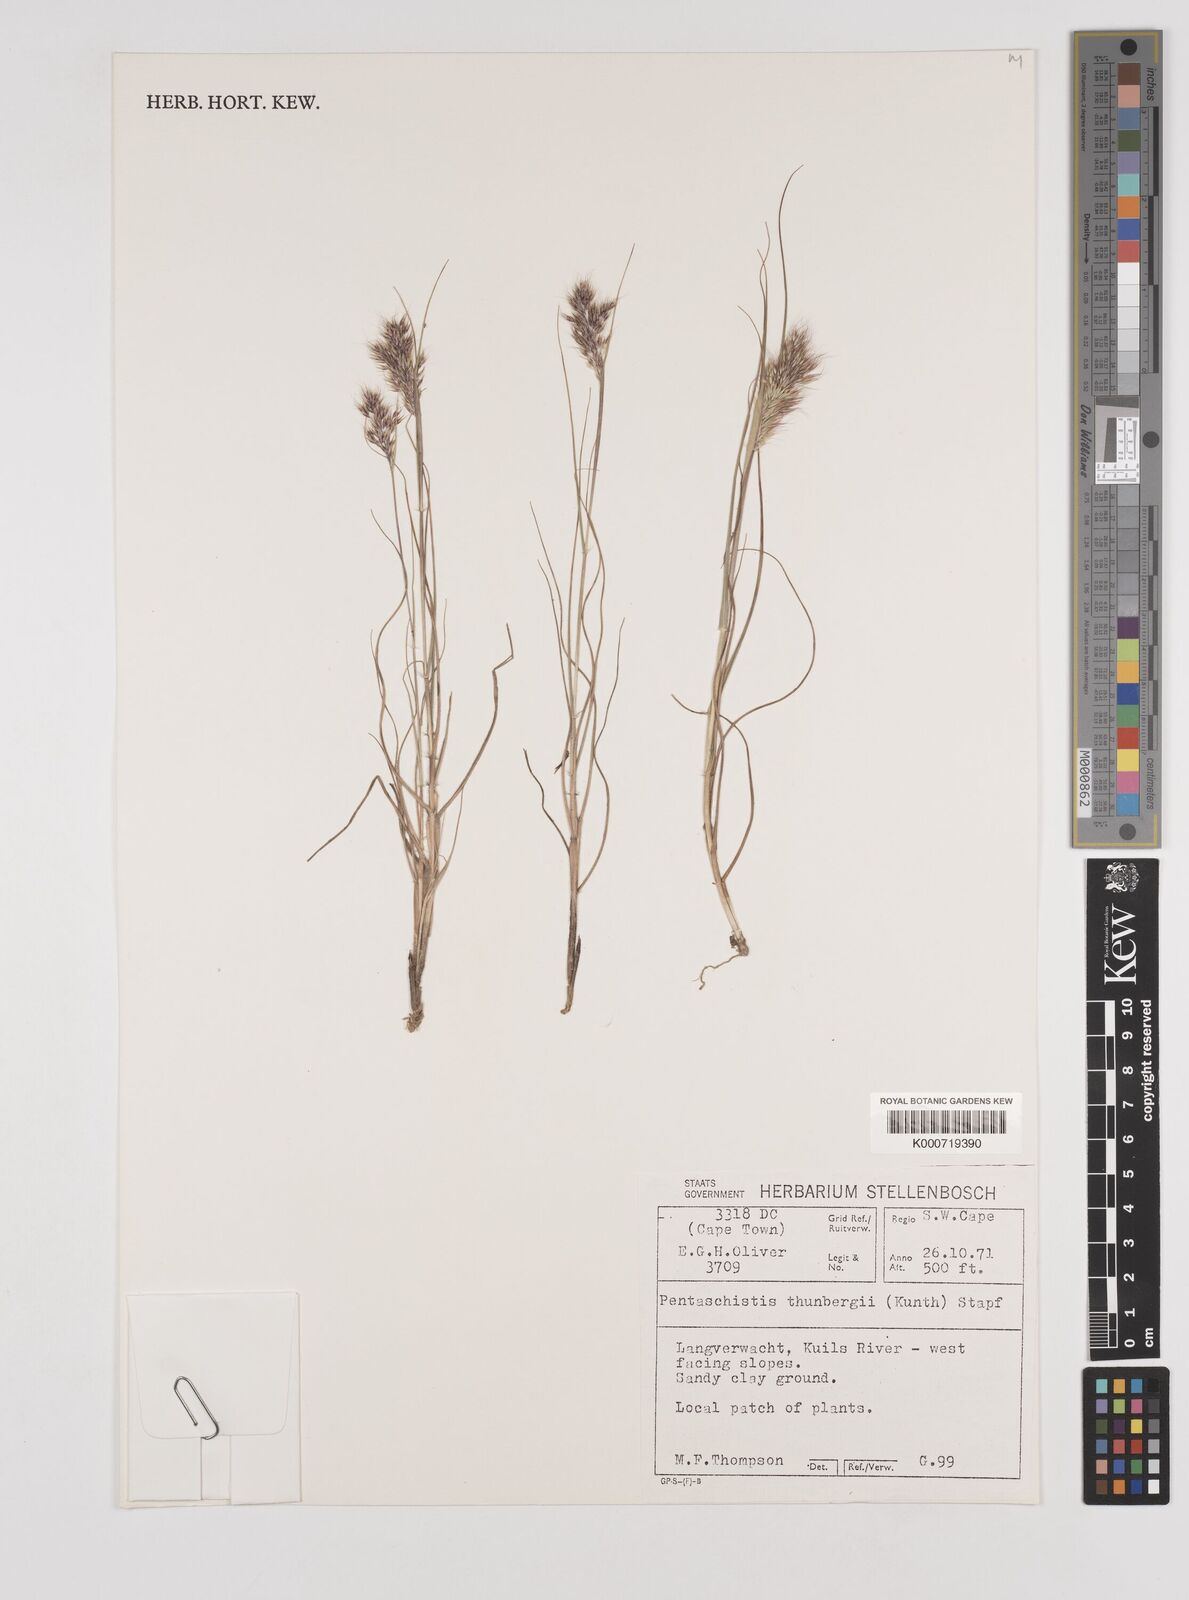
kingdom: Plantae
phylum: Tracheophyta
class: Liliopsida
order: Poales
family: Poaceae
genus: Pentameris
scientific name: Pentameris triseta
